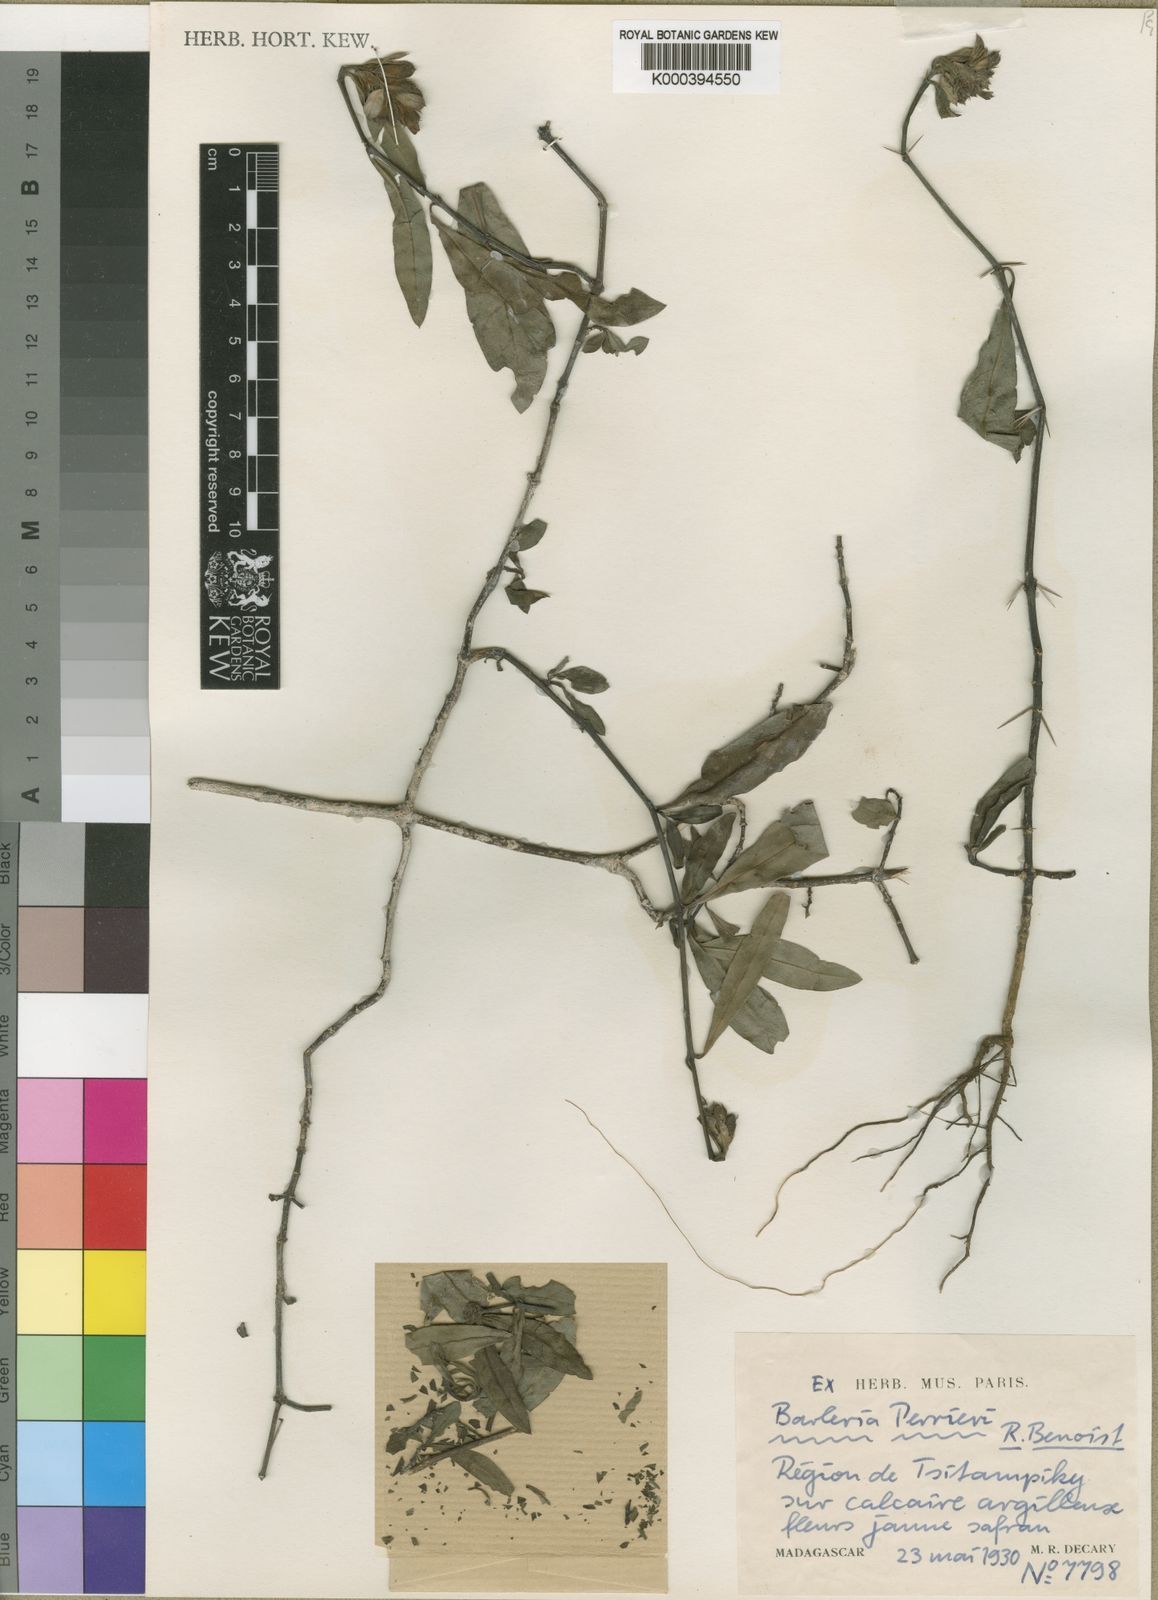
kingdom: Plantae
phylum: Tracheophyta
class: Magnoliopsida
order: Lamiales
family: Acanthaceae
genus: Barleria
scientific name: Barleria perrieri
